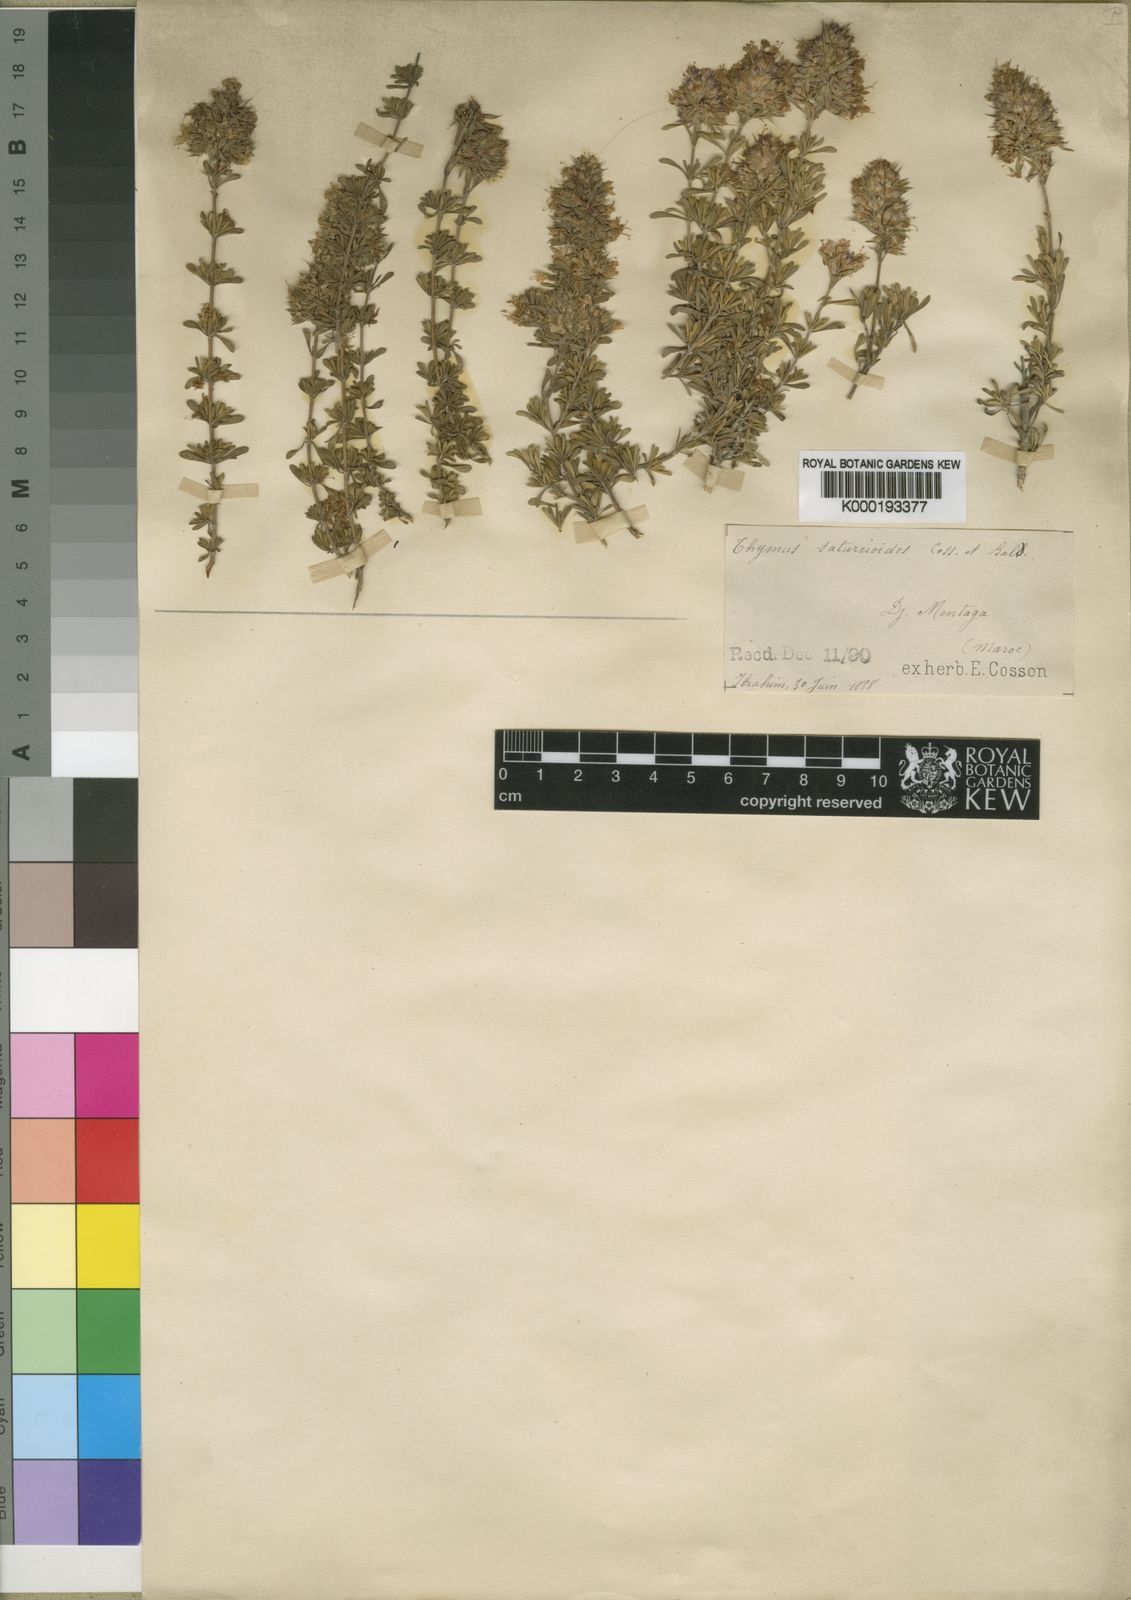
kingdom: Plantae
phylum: Tracheophyta
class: Magnoliopsida
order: Lamiales
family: Lamiaceae
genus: Thymus
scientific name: Thymus
